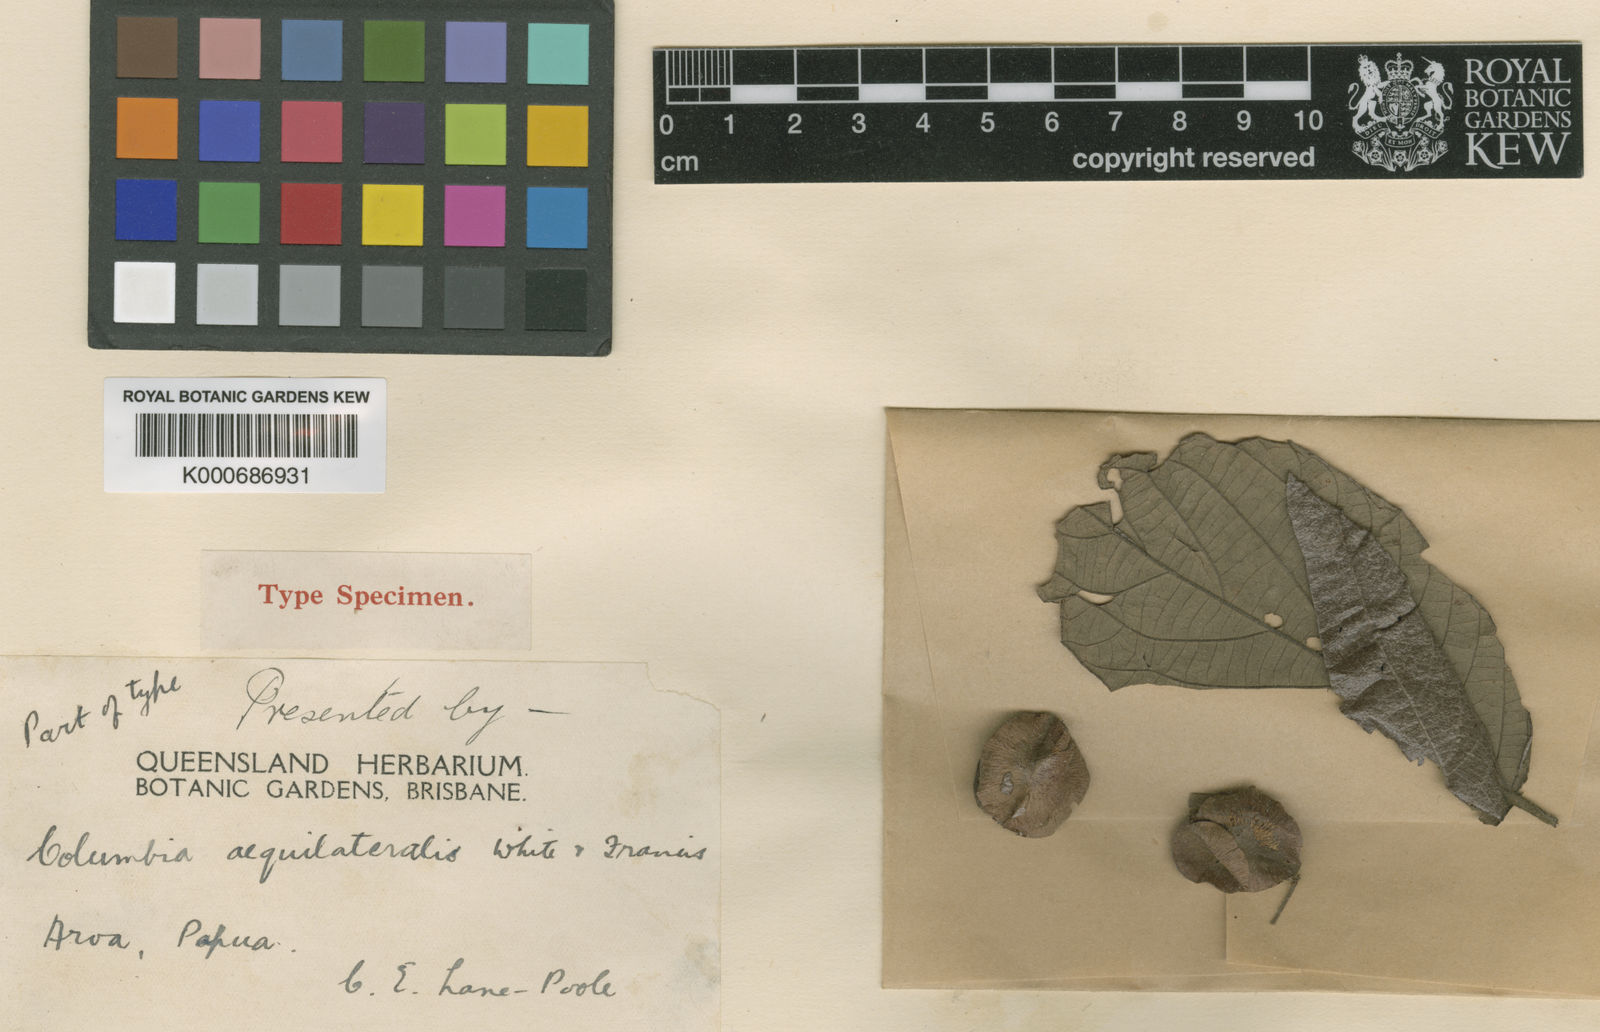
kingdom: Plantae
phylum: Tracheophyta
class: Magnoliopsida
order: Malvales
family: Malvaceae
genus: Colona
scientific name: Colona aequilateralis
